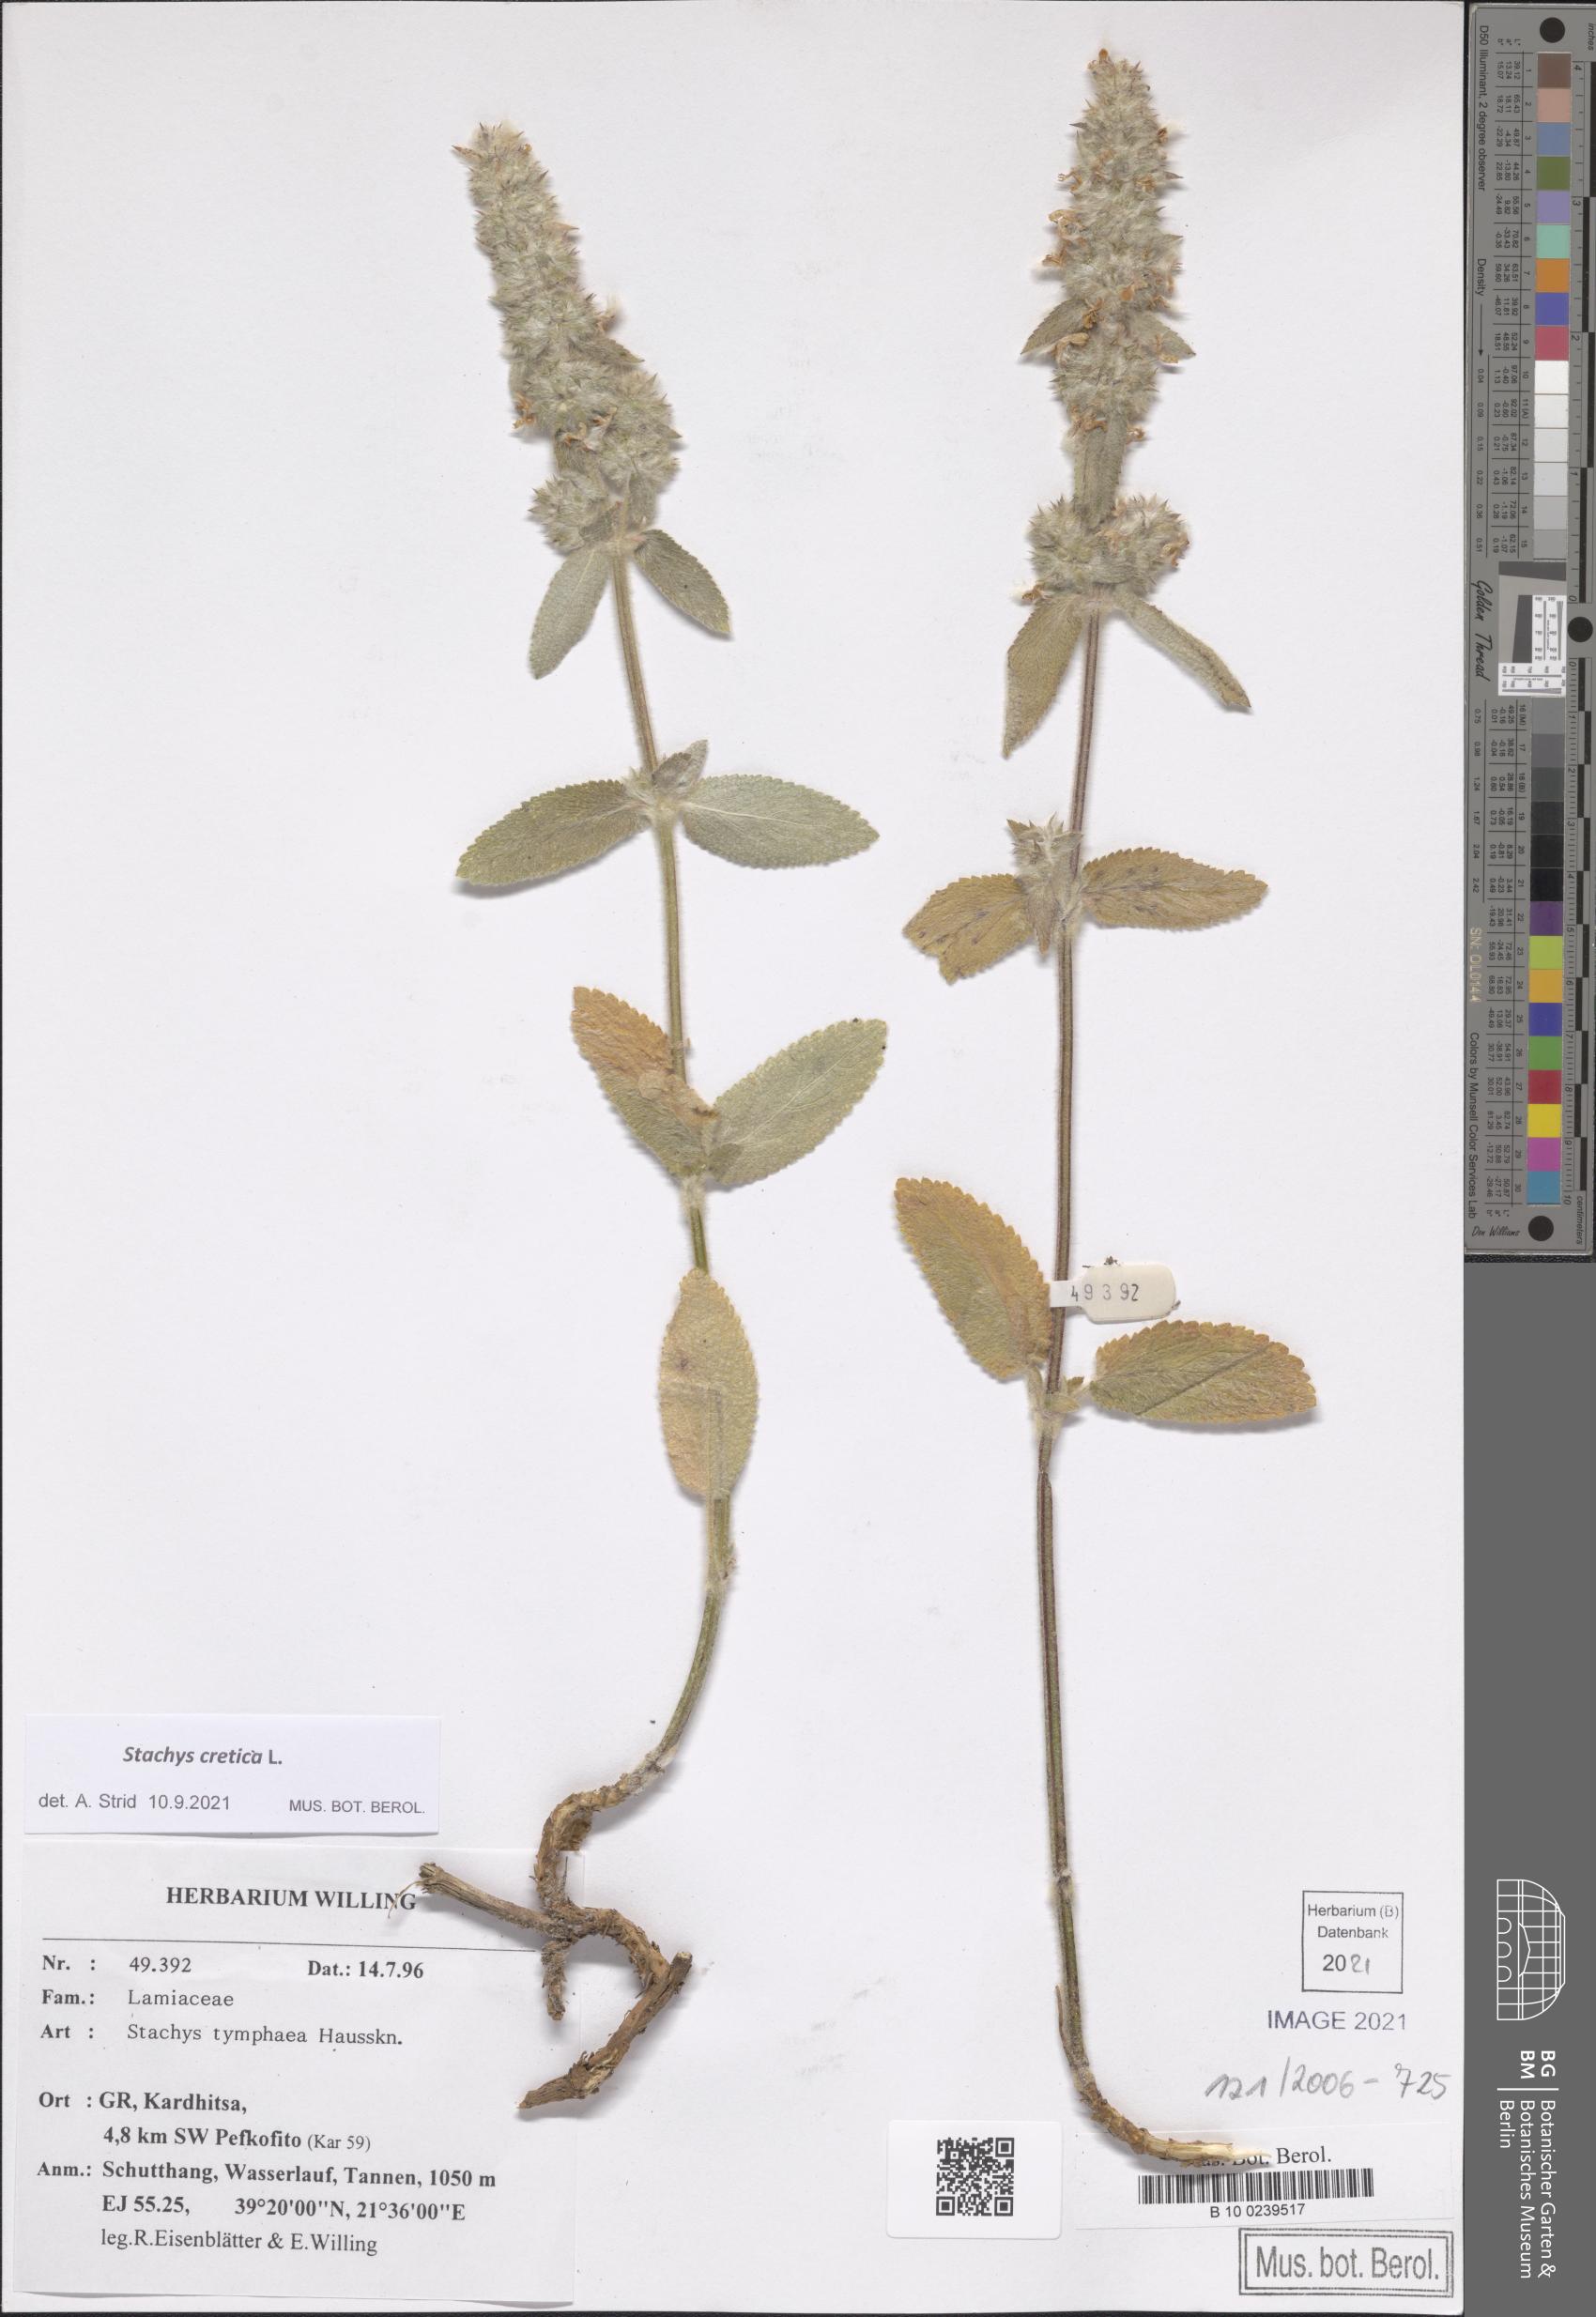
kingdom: Plantae
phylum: Tracheophyta
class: Magnoliopsida
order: Lamiales
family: Lamiaceae
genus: Stachys
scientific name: Stachys cretica
